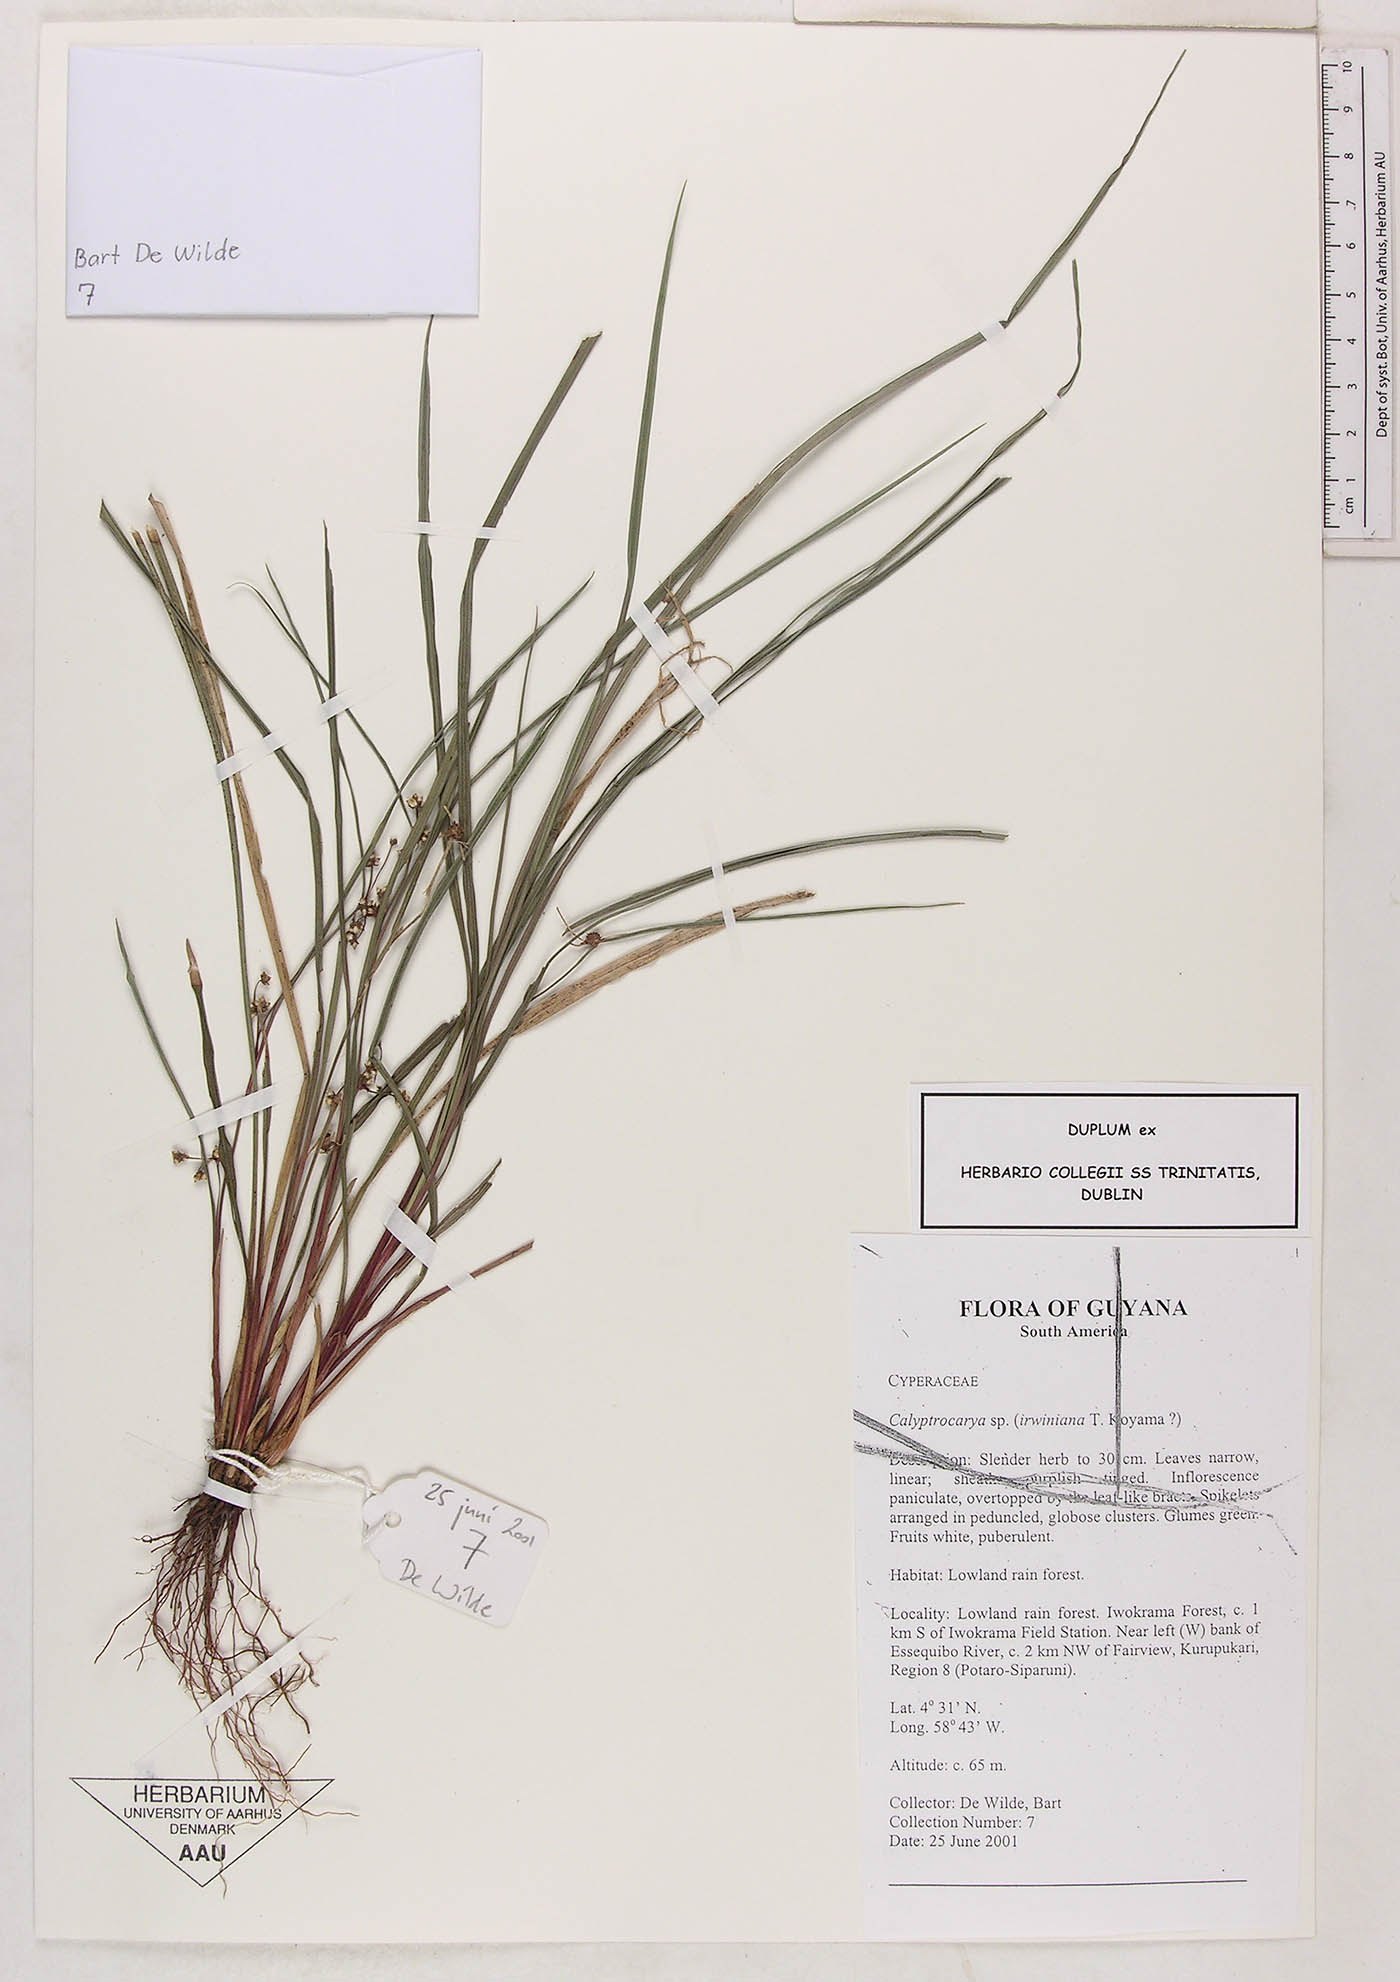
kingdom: Plantae
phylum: Tracheophyta
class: Liliopsida
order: Poales
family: Cyperaceae
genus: Calyptrocarya
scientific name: Calyptrocarya
